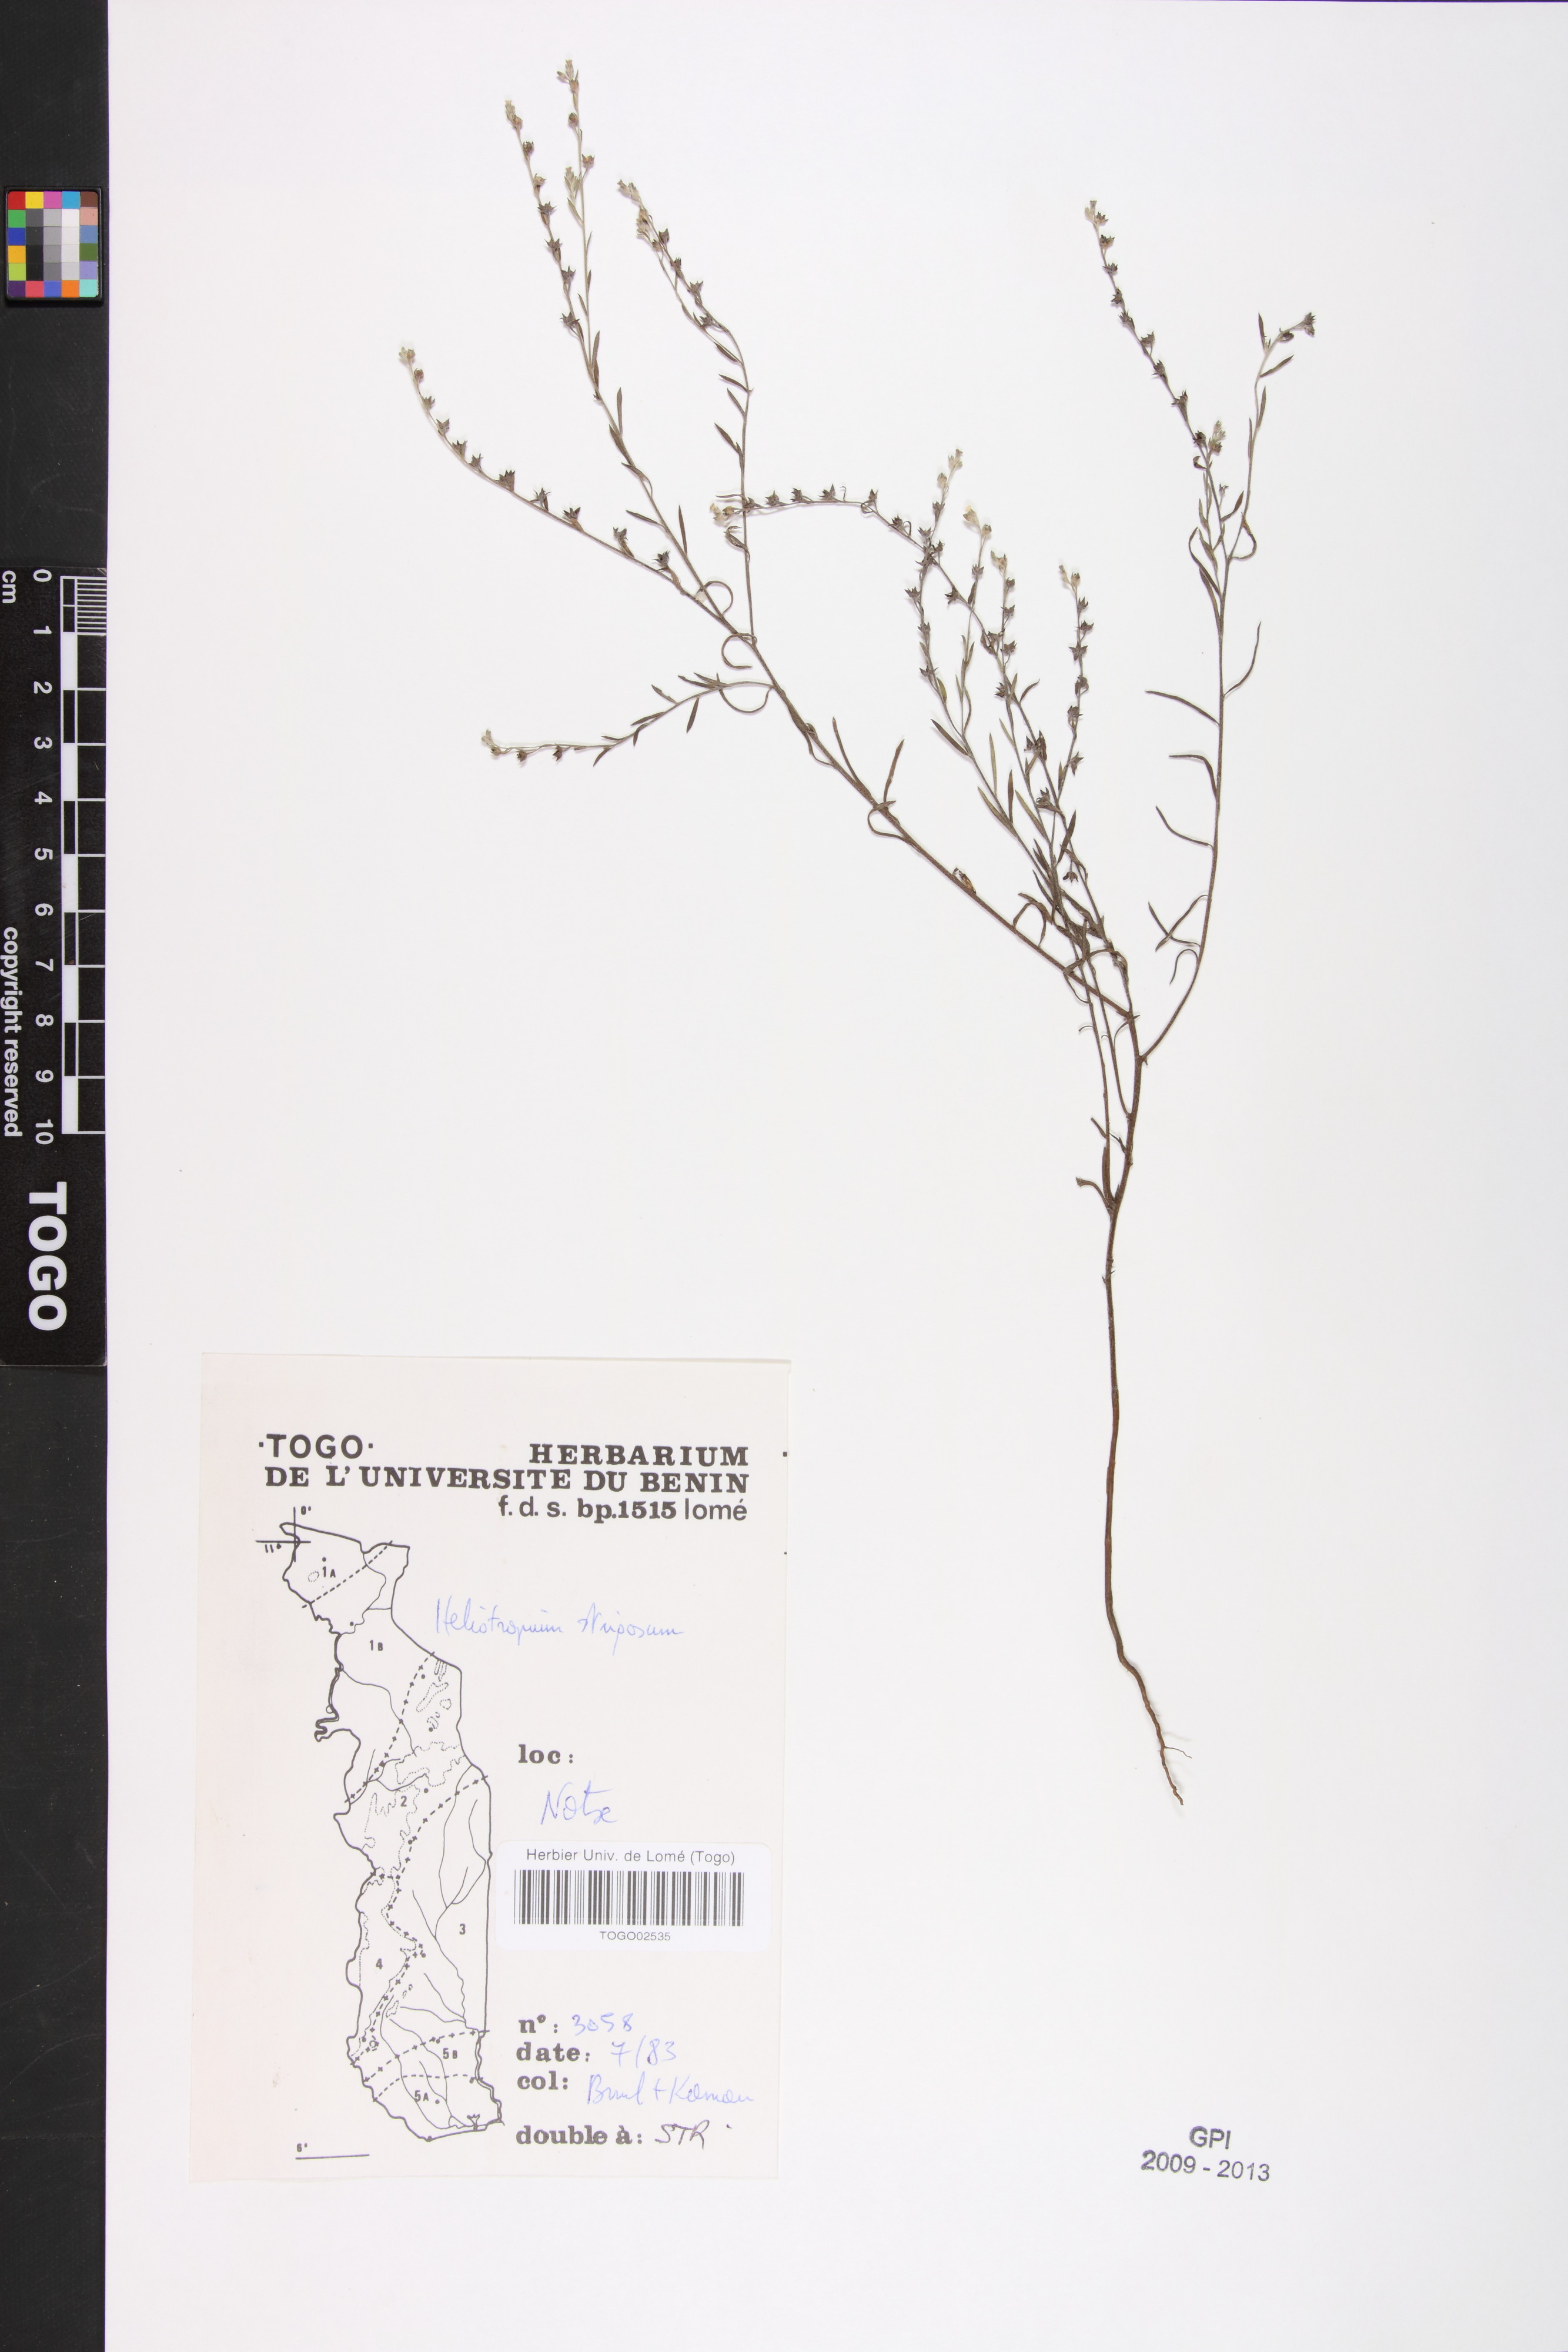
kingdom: Plantae
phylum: Tracheophyta
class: Magnoliopsida
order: Boraginales
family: Heliotropiaceae
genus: Euploca
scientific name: Euploca strigosa
